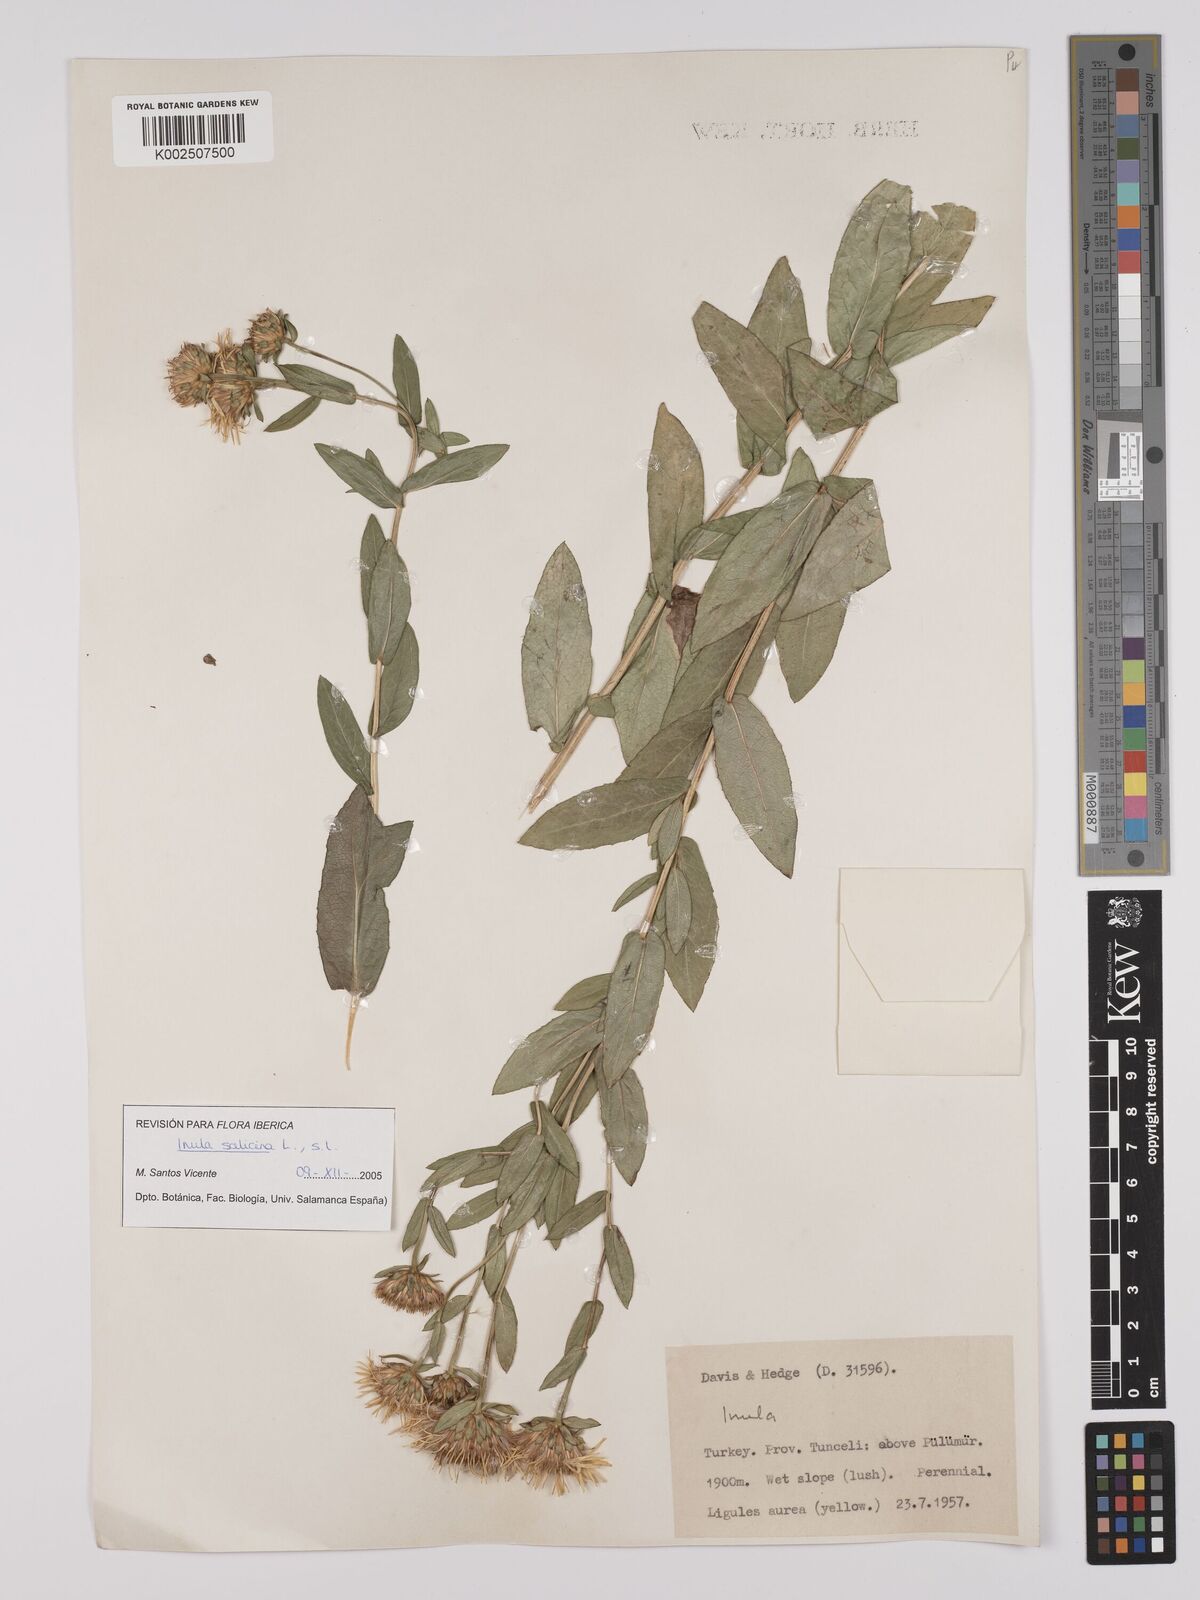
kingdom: Plantae
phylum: Tracheophyta
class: Magnoliopsida
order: Asterales
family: Asteraceae
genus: Pentanema
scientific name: Pentanema salicinum
